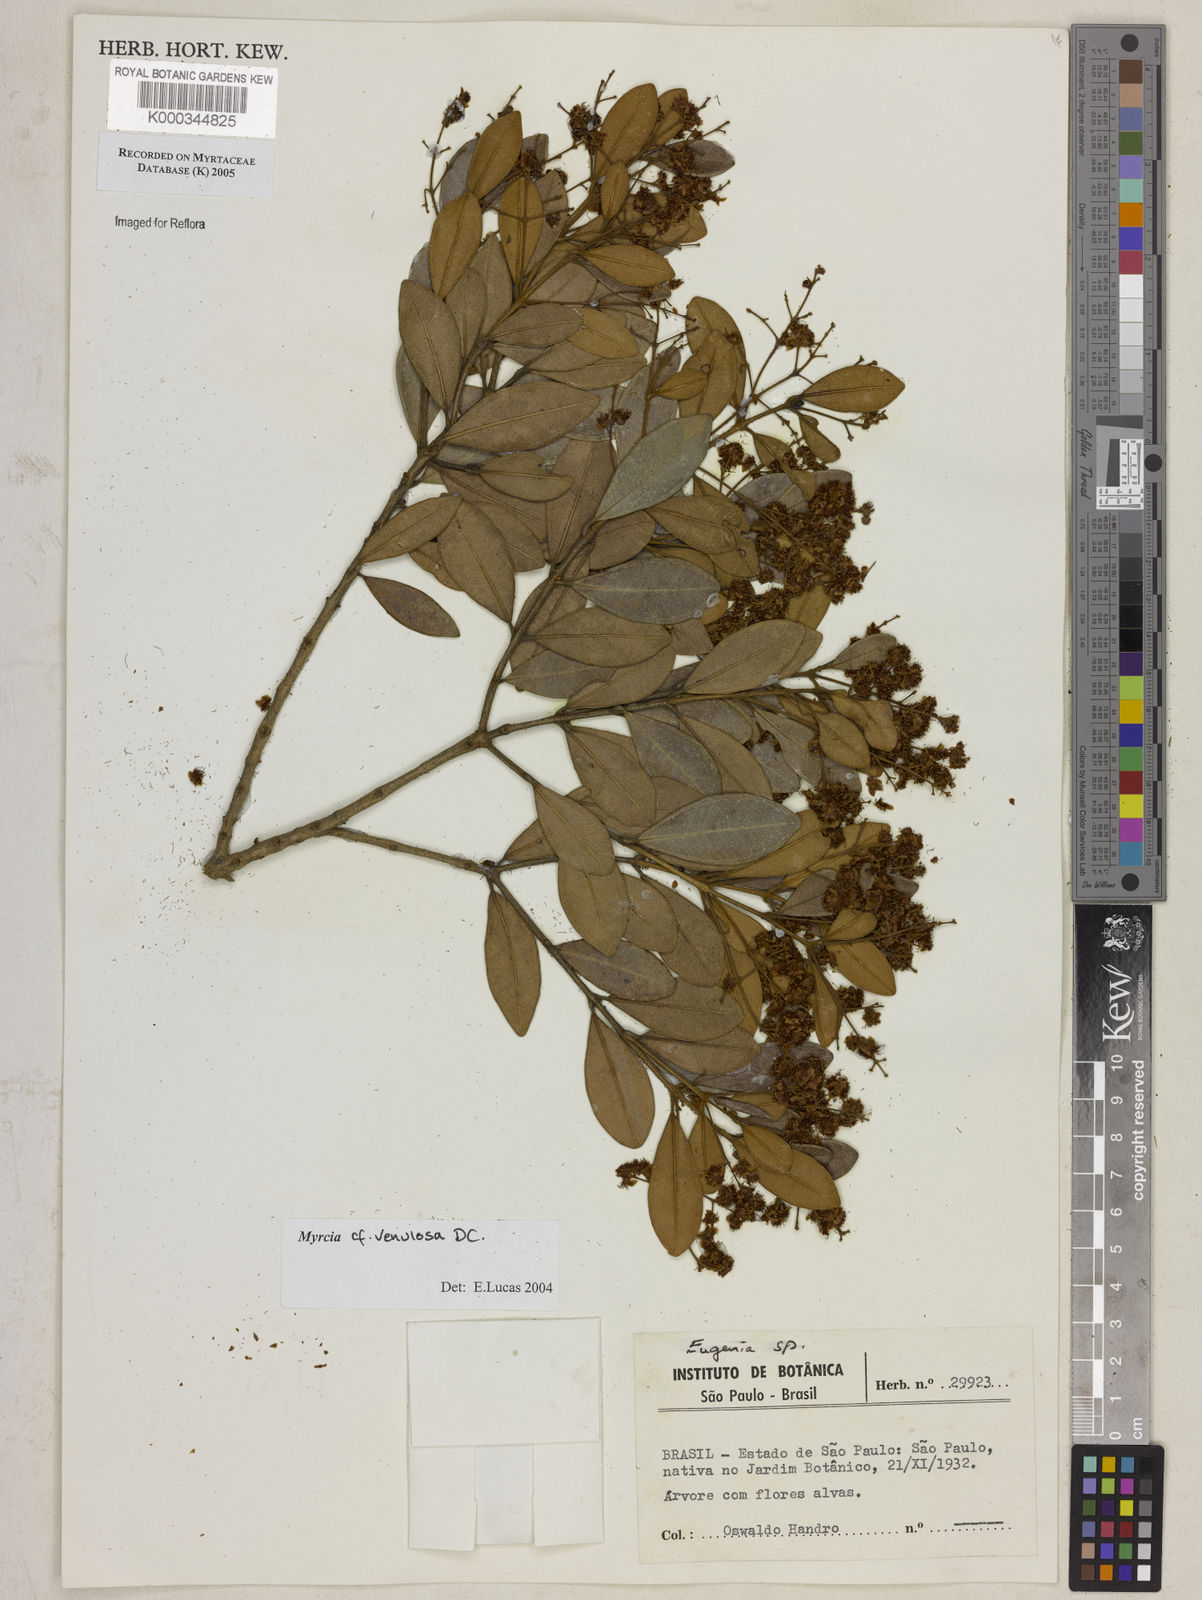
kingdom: Plantae
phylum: Tracheophyta
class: Magnoliopsida
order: Myrtales
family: Myrtaceae
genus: Myrcia
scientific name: Myrcia venulosa
